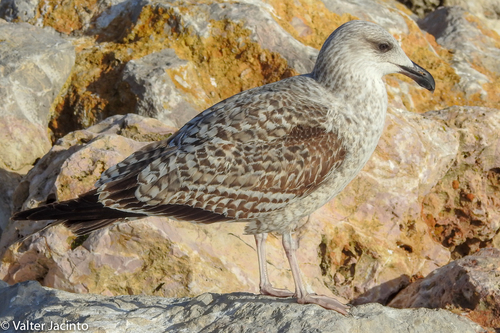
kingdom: Animalia
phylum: Chordata
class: Aves
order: Charadriiformes
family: Laridae
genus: Larus
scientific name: Larus michahellis
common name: Yellow-legged gull
